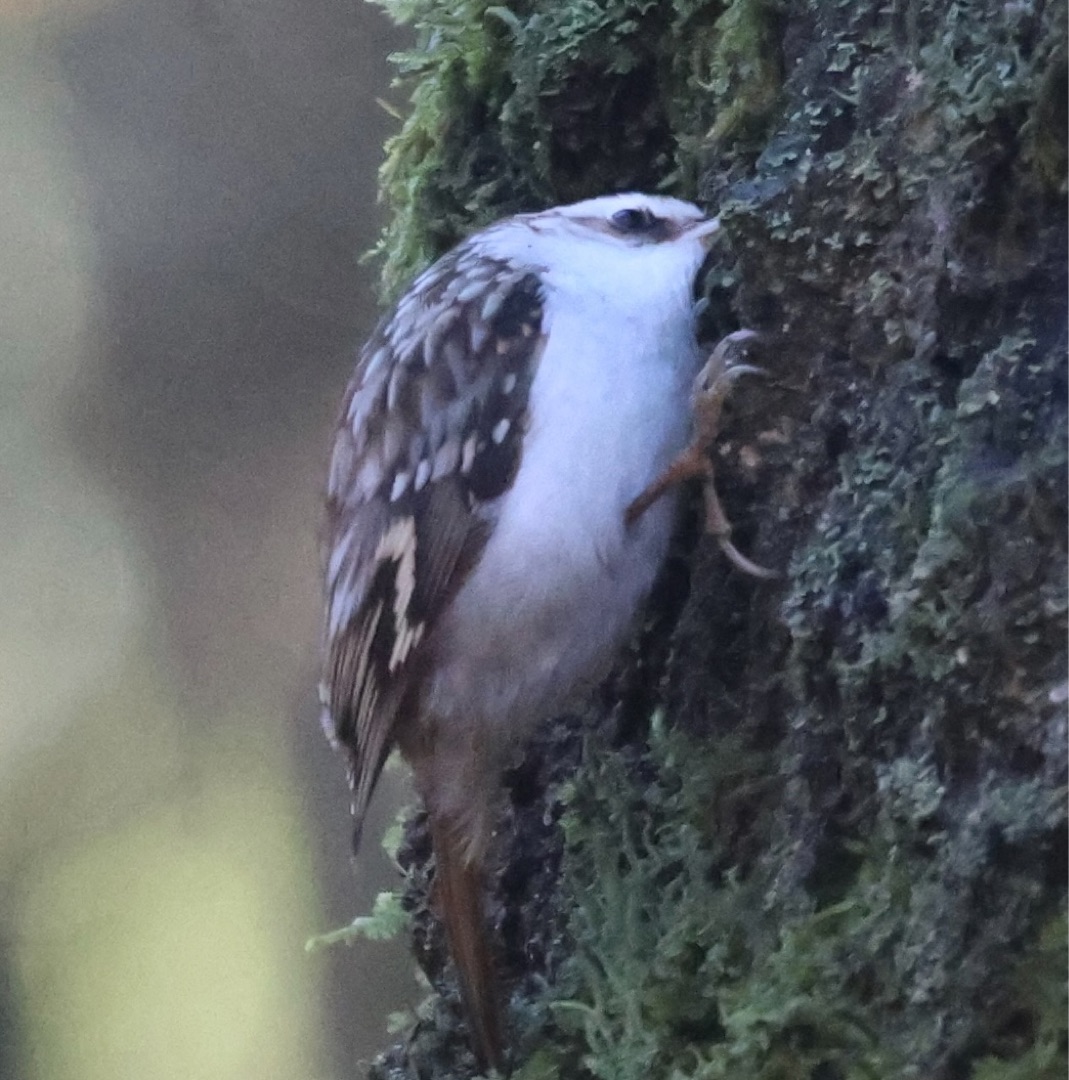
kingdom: Animalia
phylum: Chordata
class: Aves
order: Passeriformes
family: Certhiidae
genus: Certhia
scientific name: Certhia familiaris
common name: Træløber
